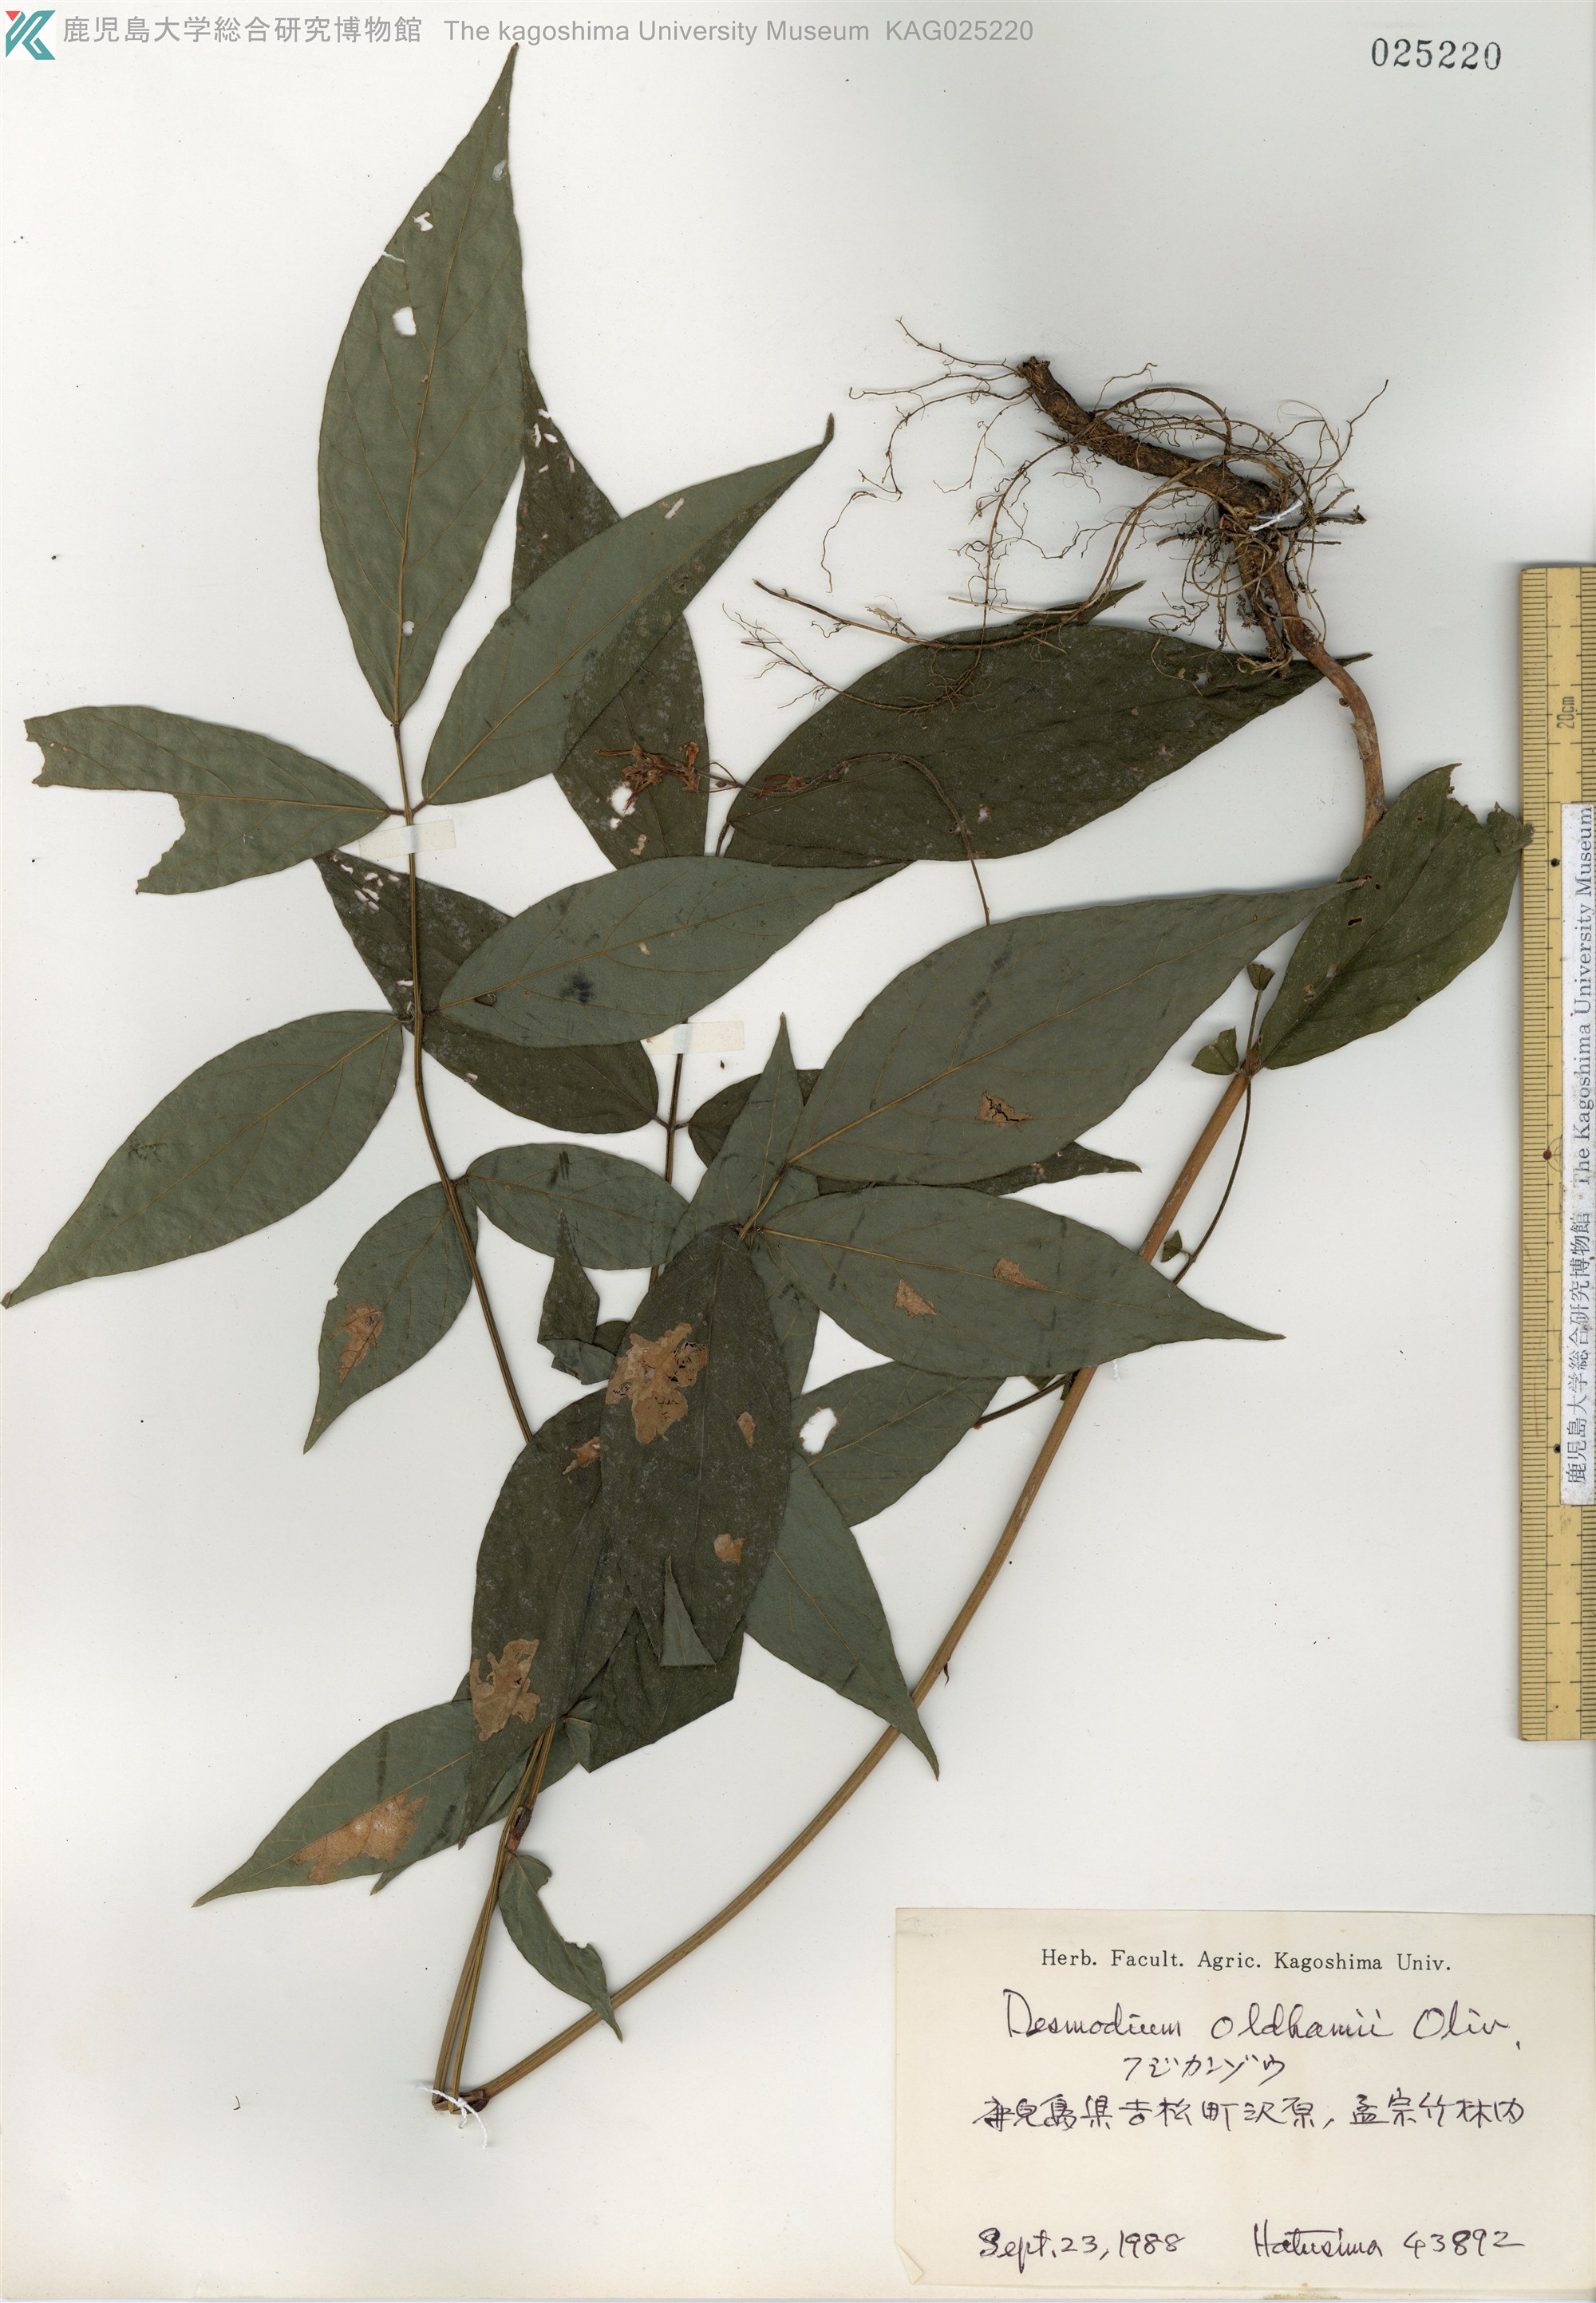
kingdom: Plantae
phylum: Tracheophyta
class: Magnoliopsida
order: Fabales
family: Fabaceae
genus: Hylodesmum
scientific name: Hylodesmum oldhamii
